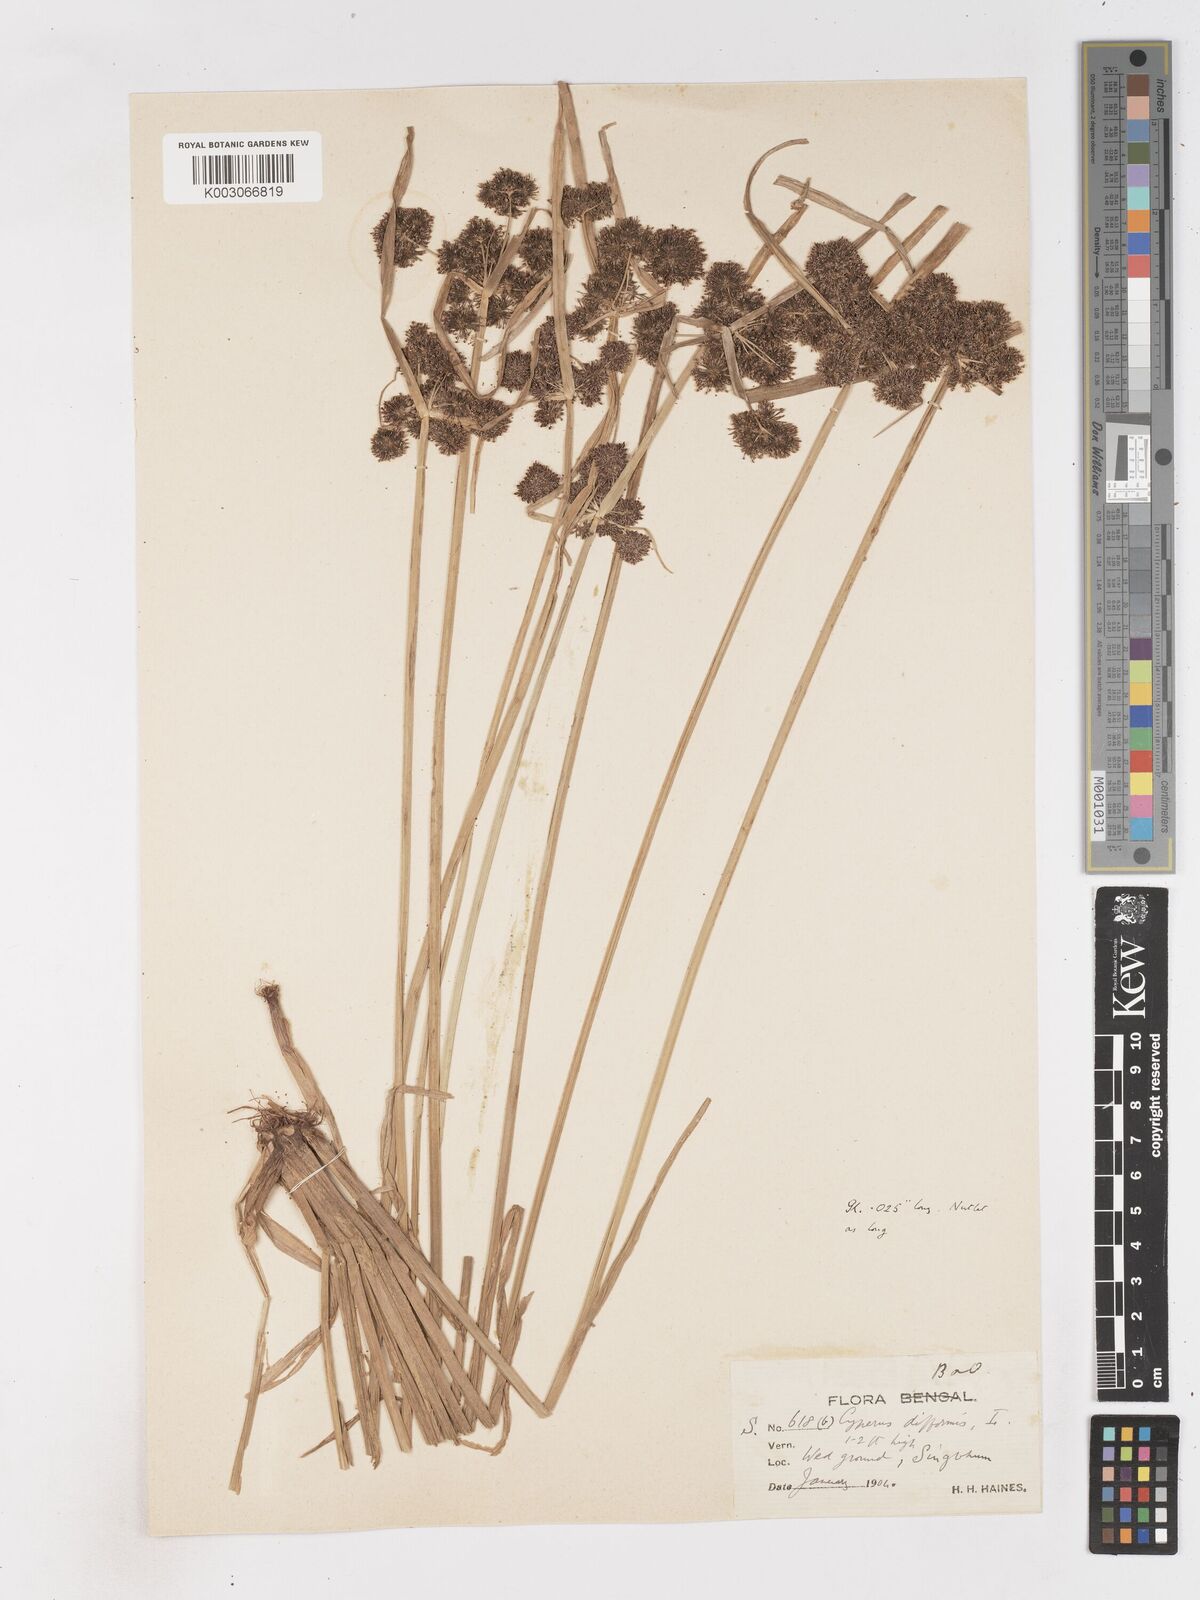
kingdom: Plantae
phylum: Tracheophyta
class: Liliopsida
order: Poales
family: Cyperaceae
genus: Cyperus
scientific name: Cyperus difformis
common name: Variable flatsedge
